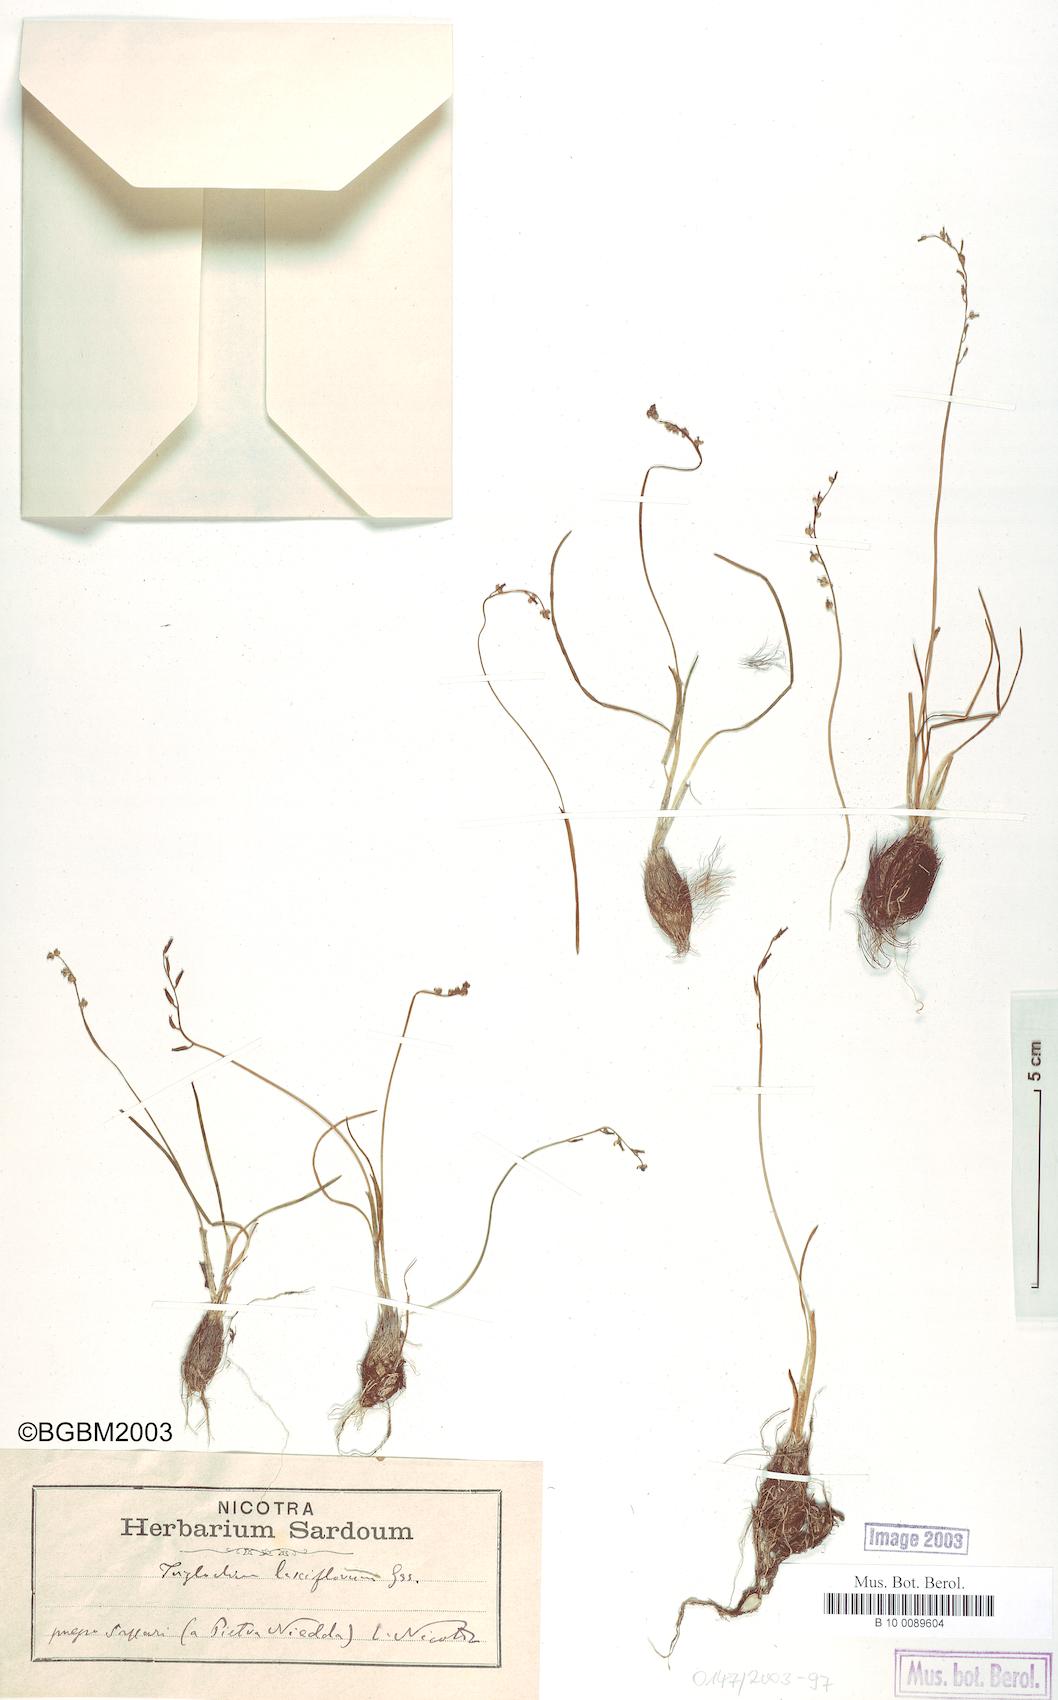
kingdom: Plantae
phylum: Tracheophyta
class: Liliopsida
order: Alismatales
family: Juncaginaceae
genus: Triglochin
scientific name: Triglochin laxiflora
